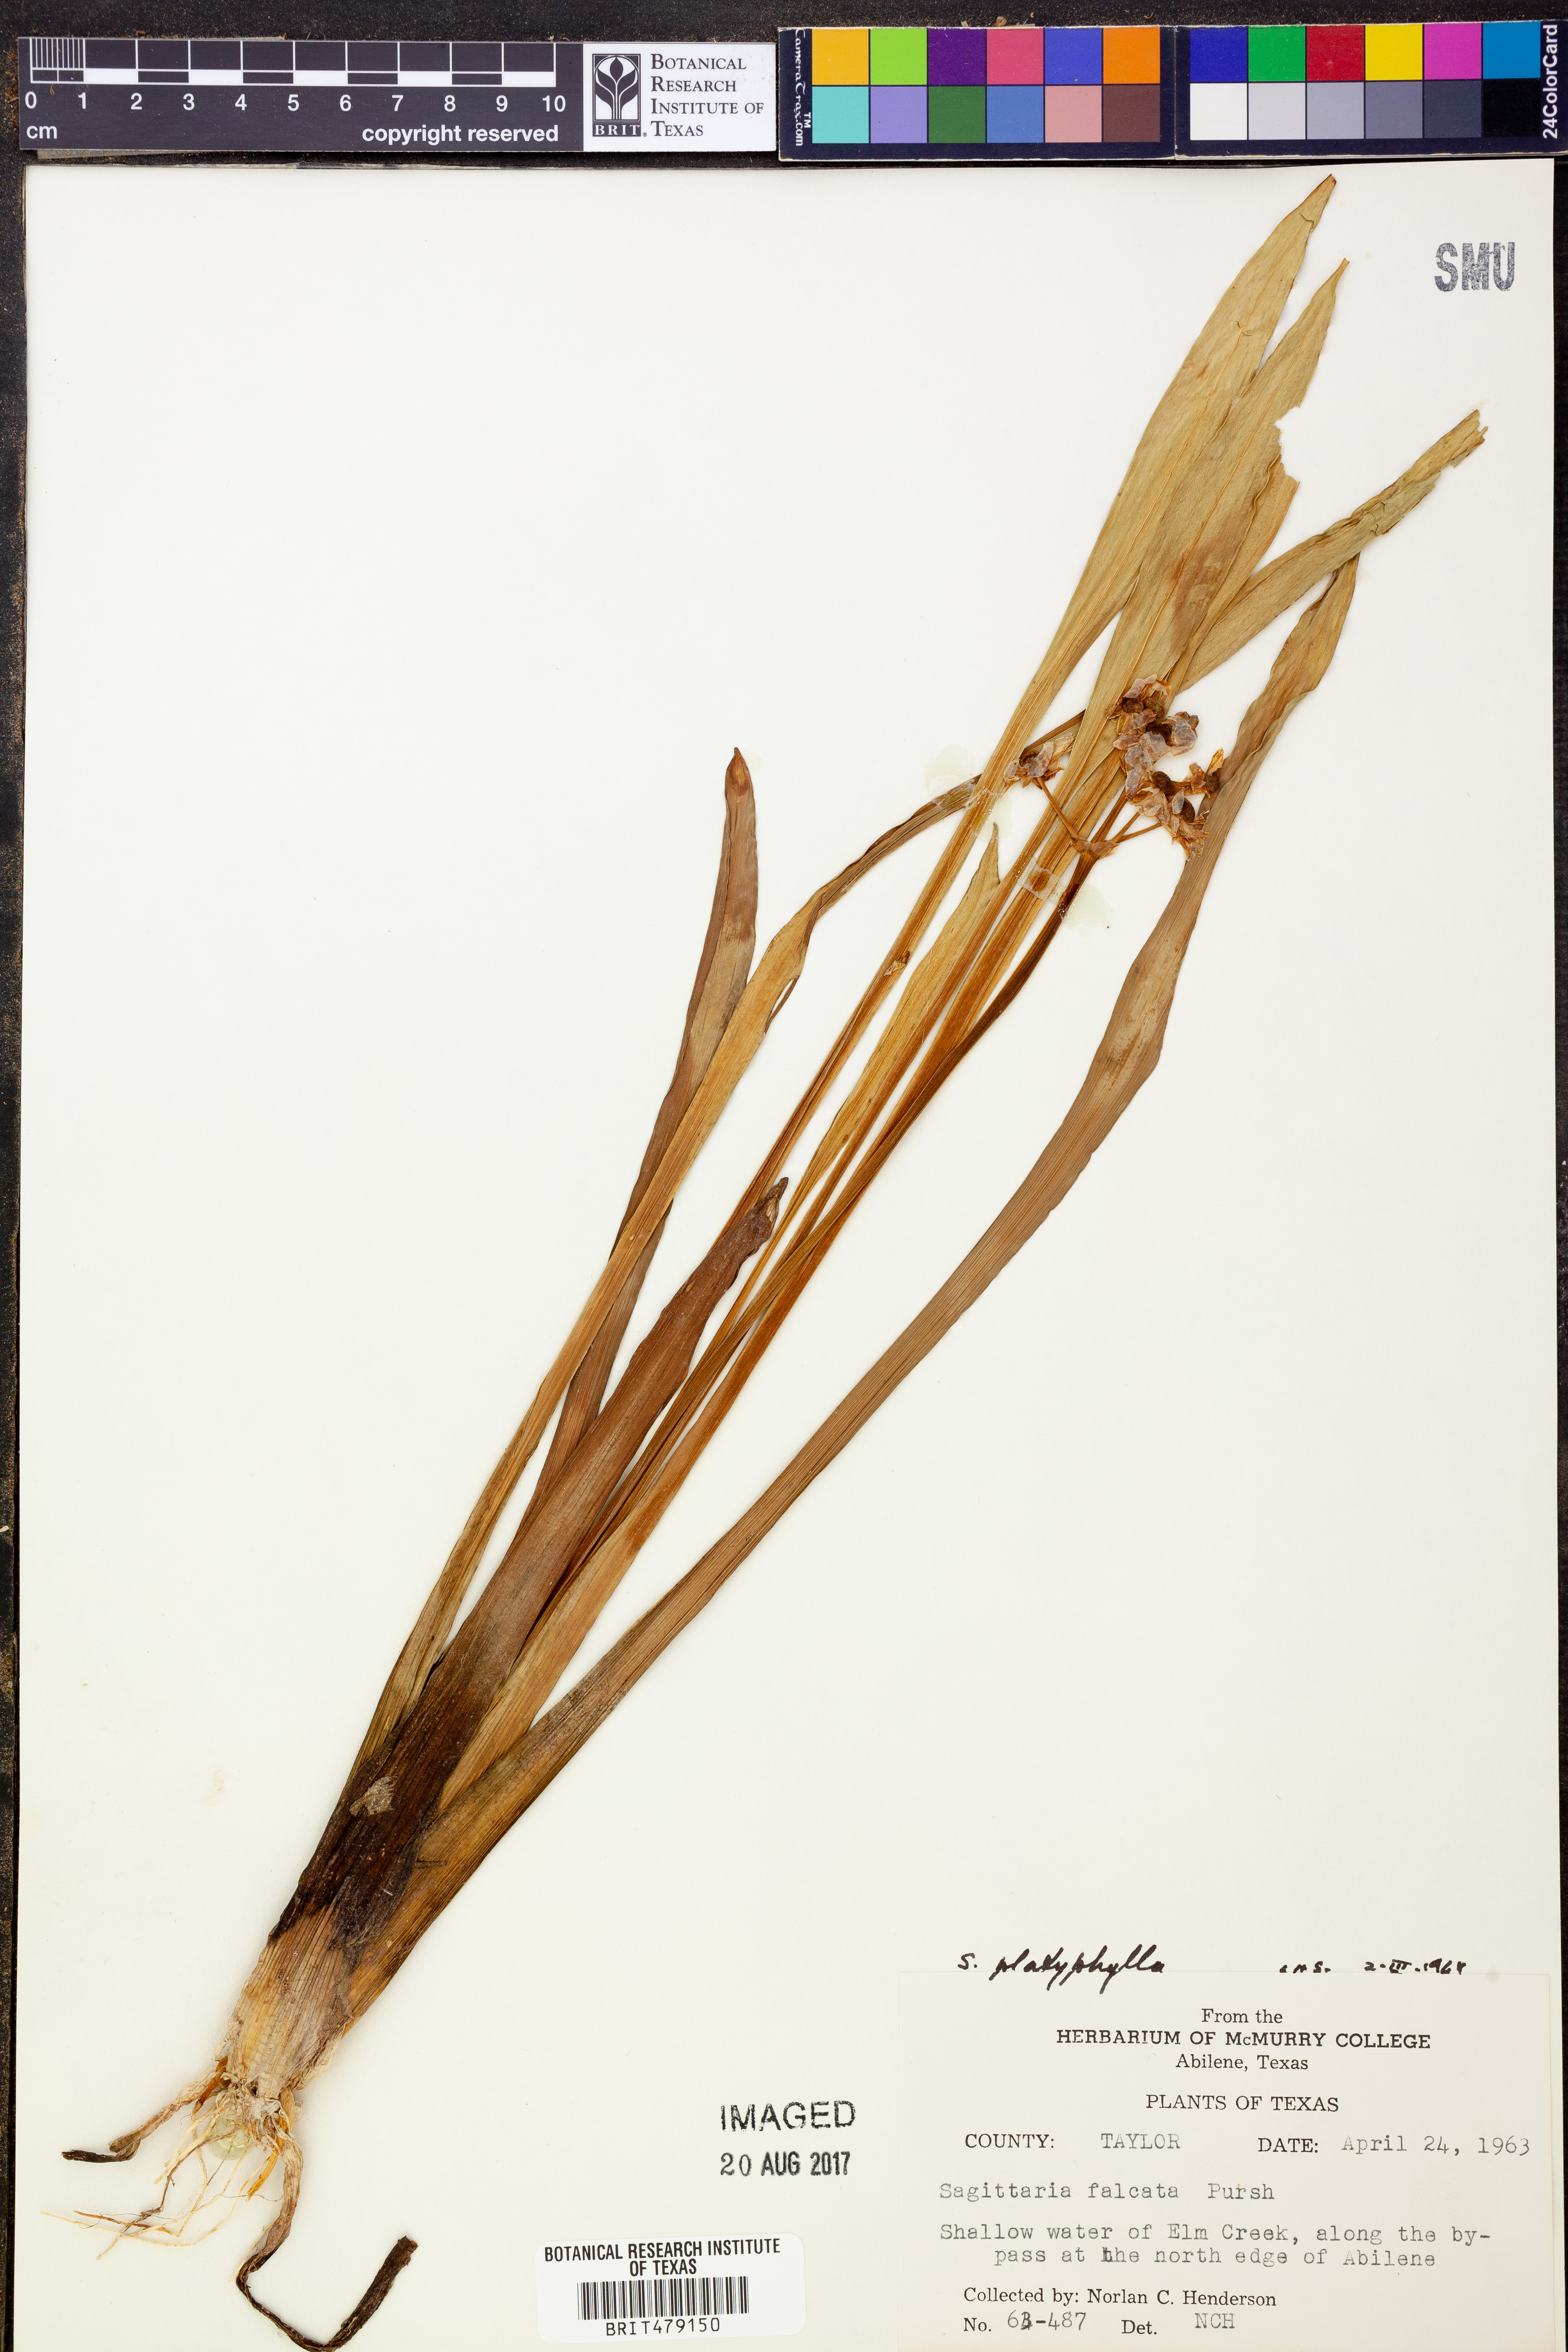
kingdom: Plantae
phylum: Tracheophyta
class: Liliopsida
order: Alismatales
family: Alismataceae
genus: Sagittaria
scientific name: Sagittaria platyphylla
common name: Broad-leaf arrowhead
